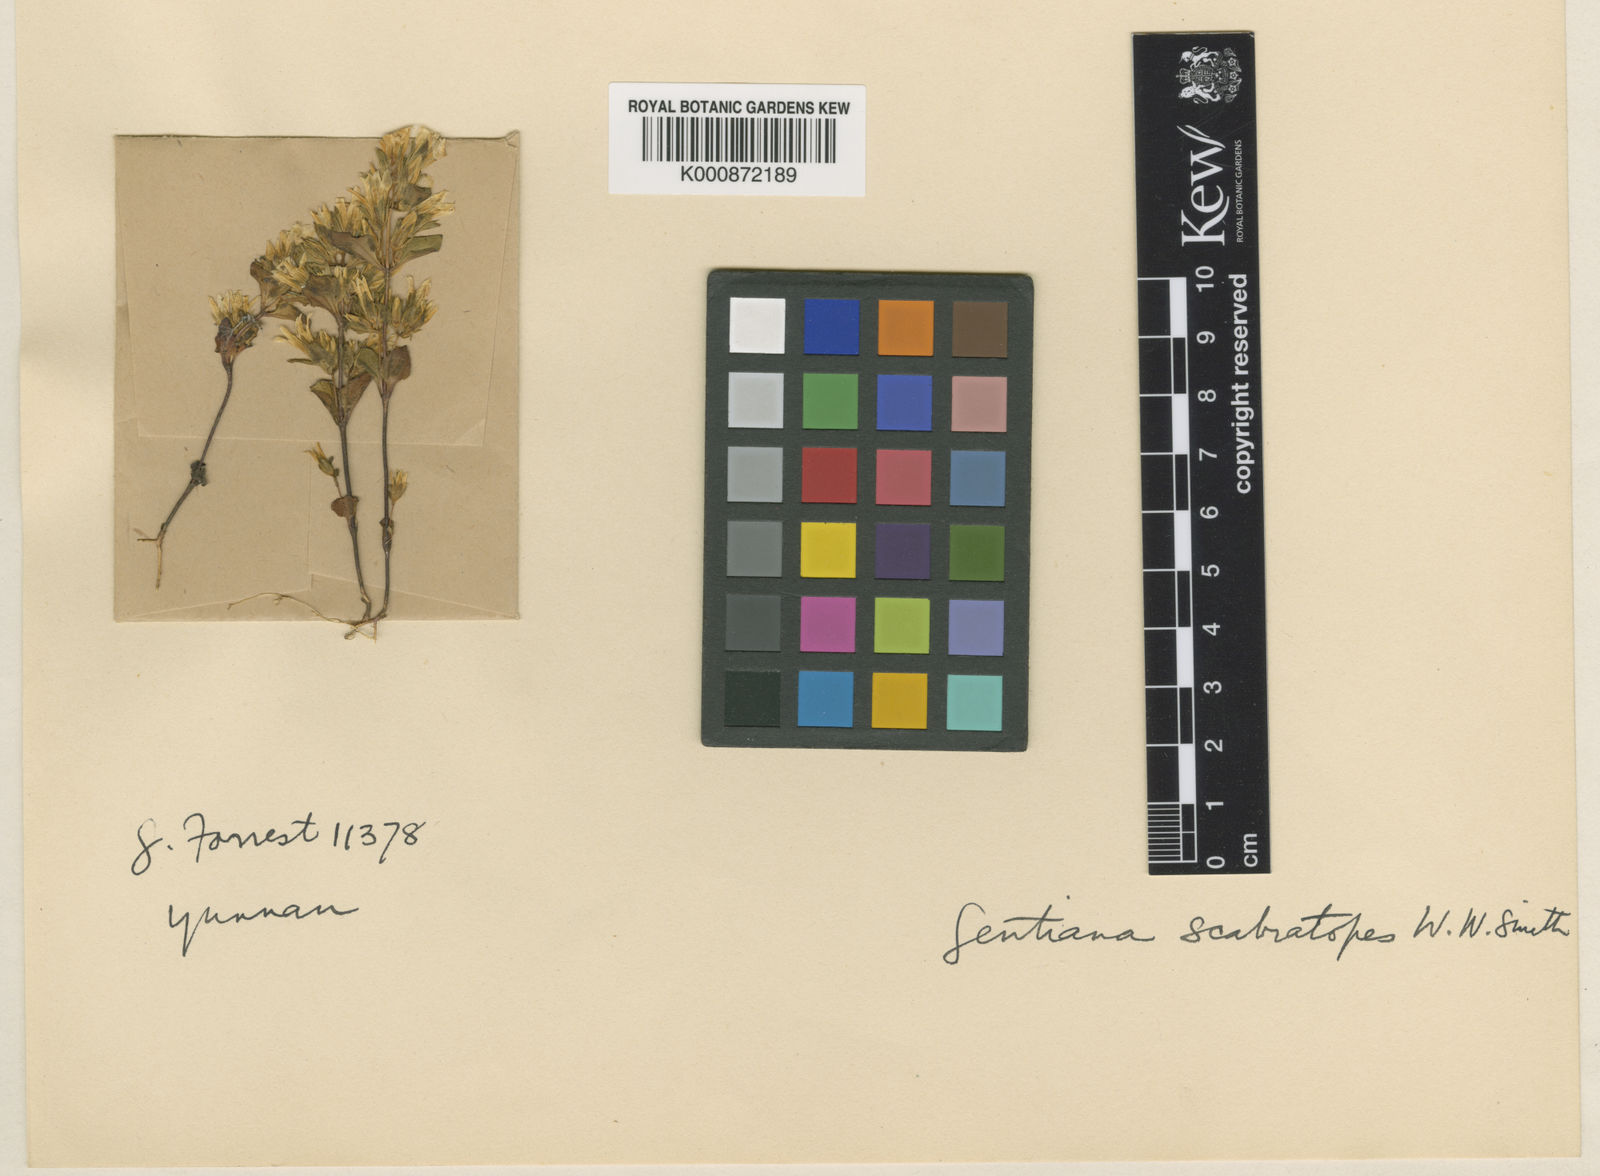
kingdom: Plantae
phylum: Tracheophyta
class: Magnoliopsida
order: Gentianales
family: Gentianaceae
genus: Gentianella
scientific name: Gentianella gentianoides
